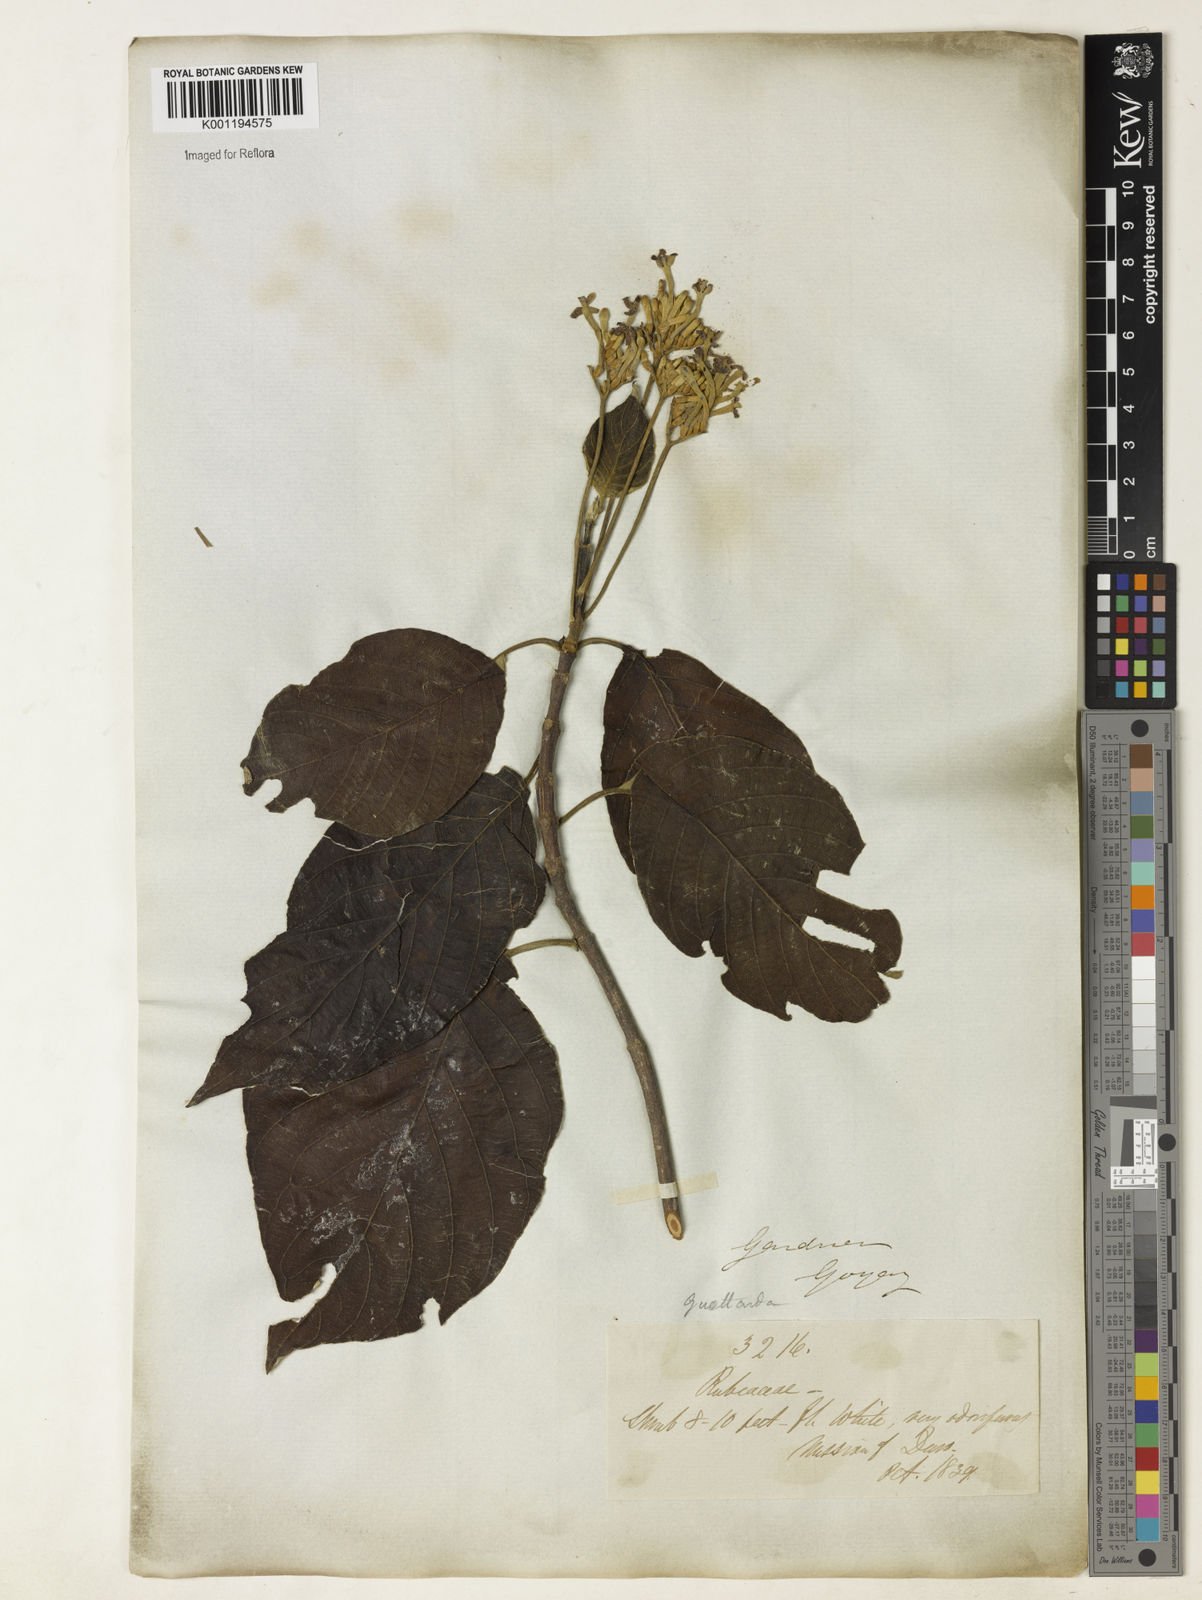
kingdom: Plantae
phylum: Tracheophyta
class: Magnoliopsida
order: Gentianales
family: Rubiaceae
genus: Guettarda
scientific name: Guettarda viburnoides
